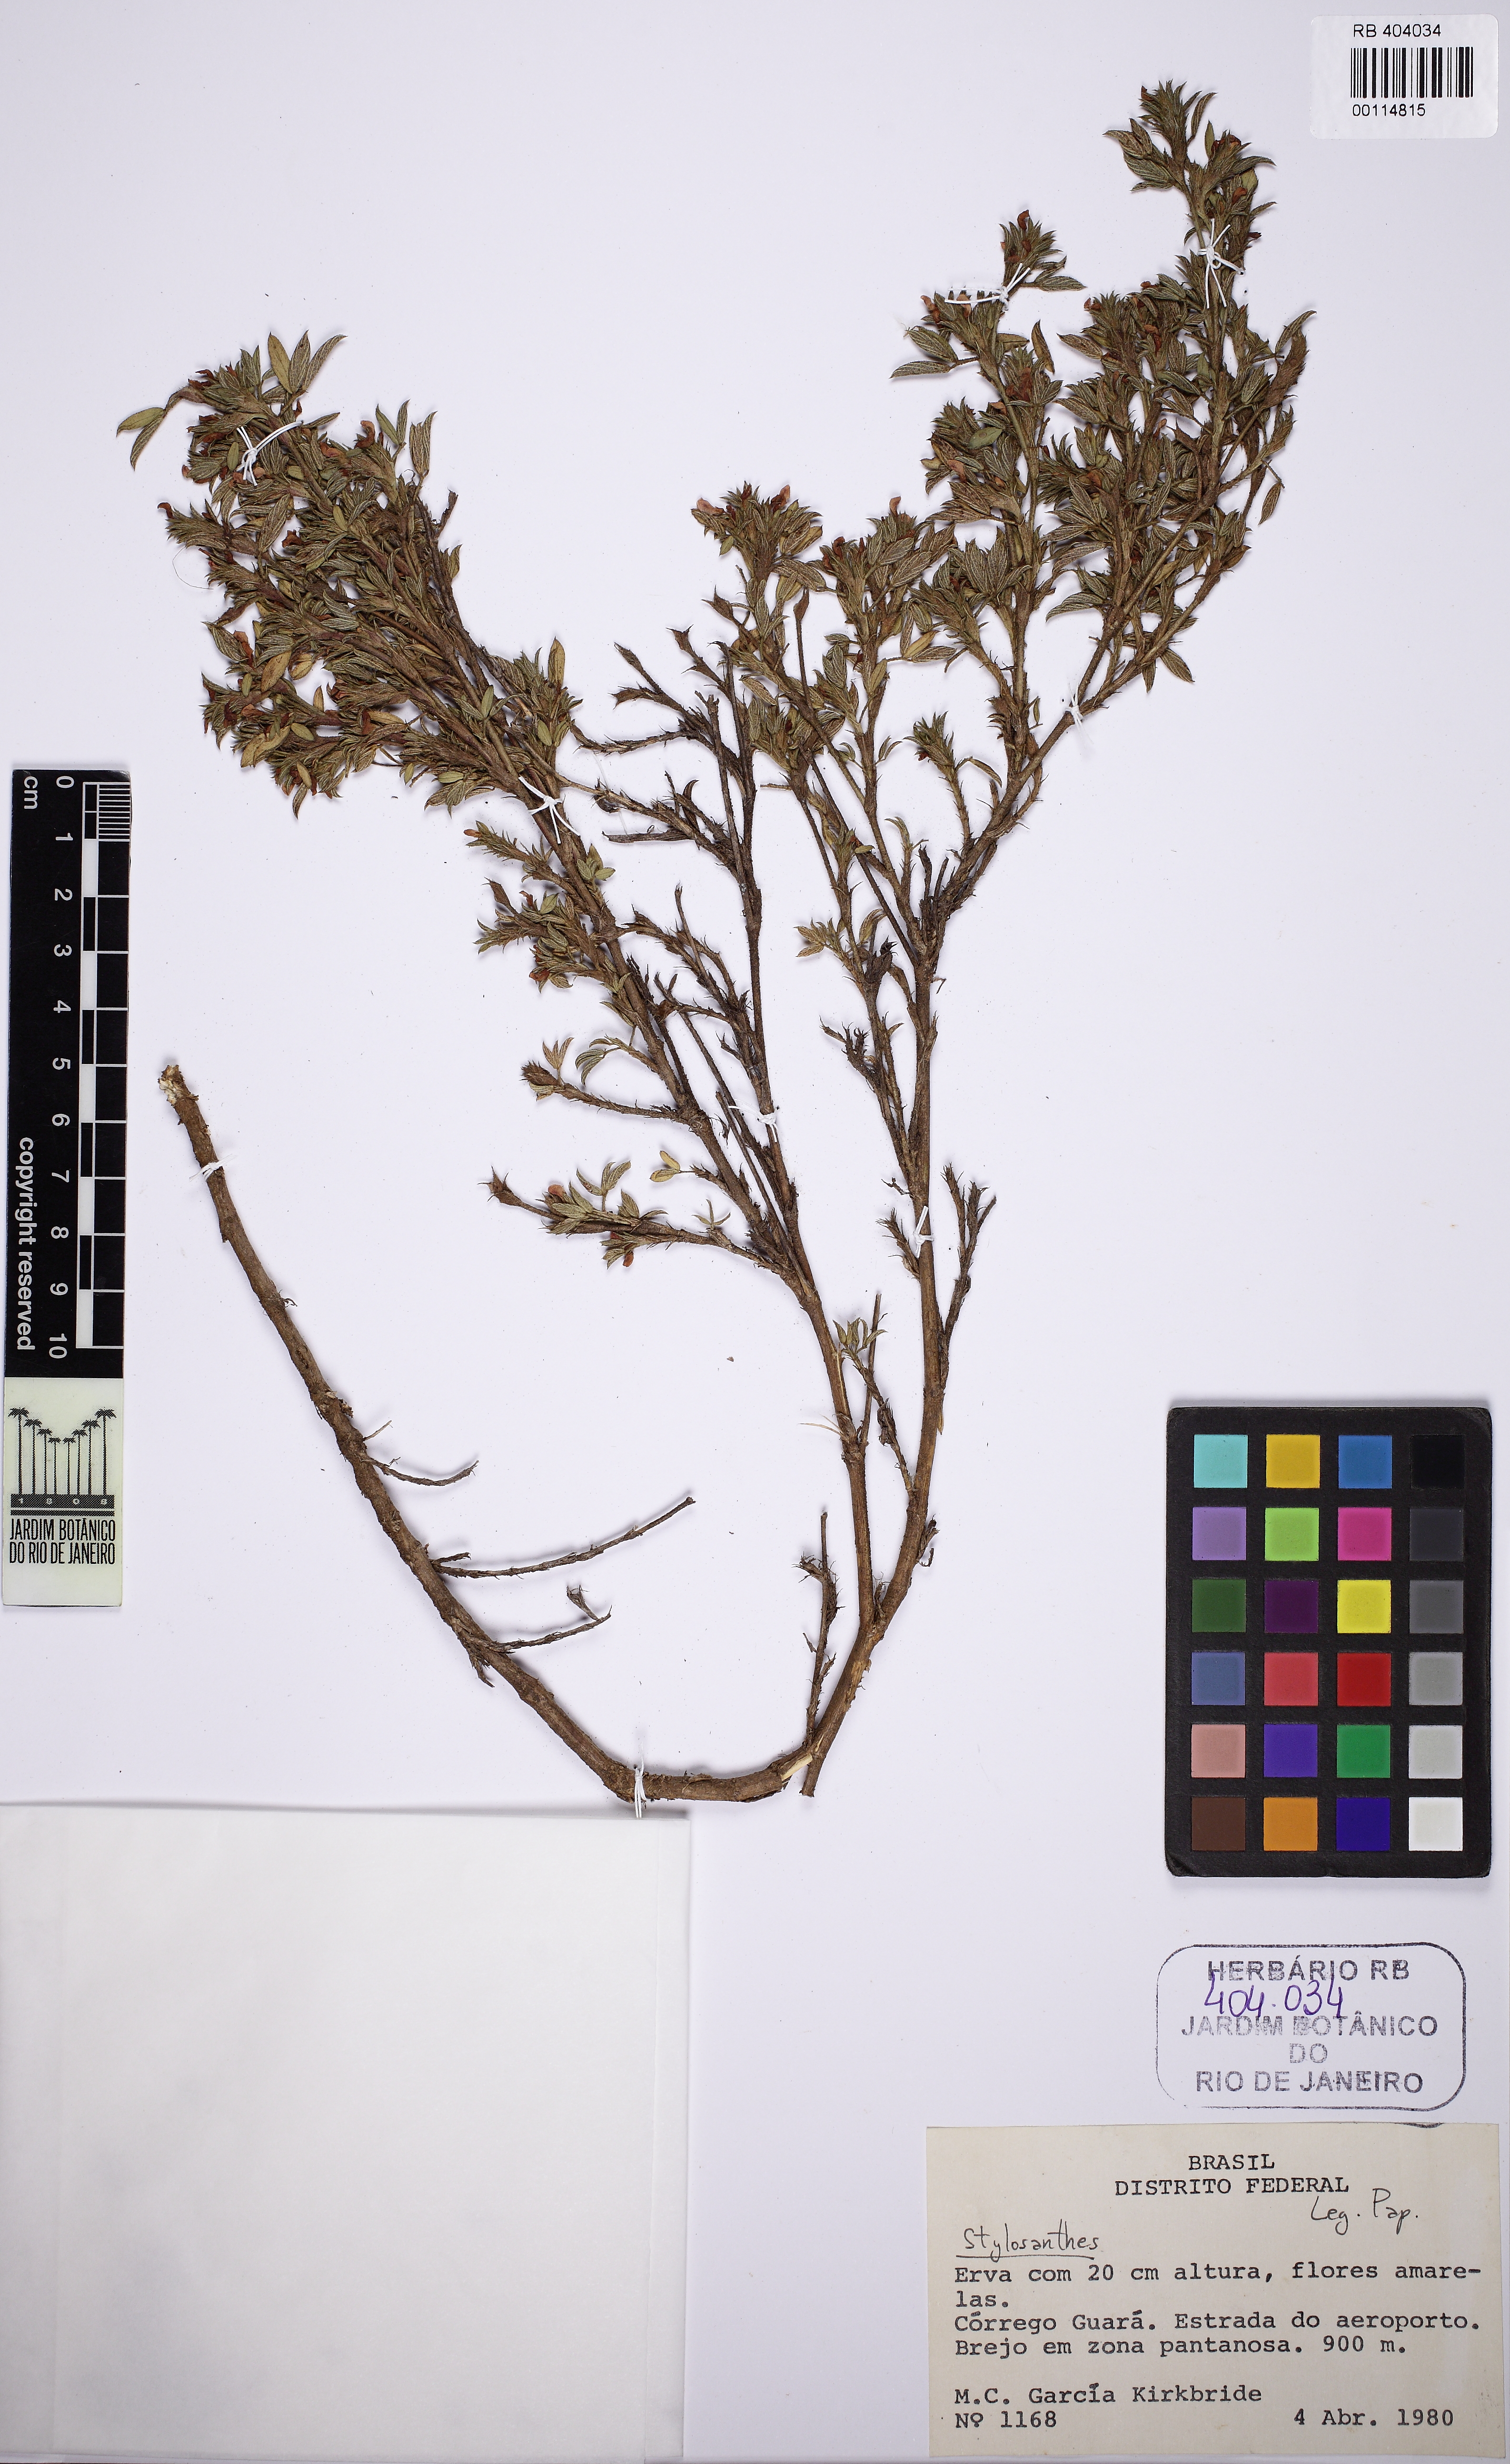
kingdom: Plantae
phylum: Tracheophyta
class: Magnoliopsida
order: Fabales
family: Fabaceae
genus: Stylosanthes
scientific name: Stylosanthes
